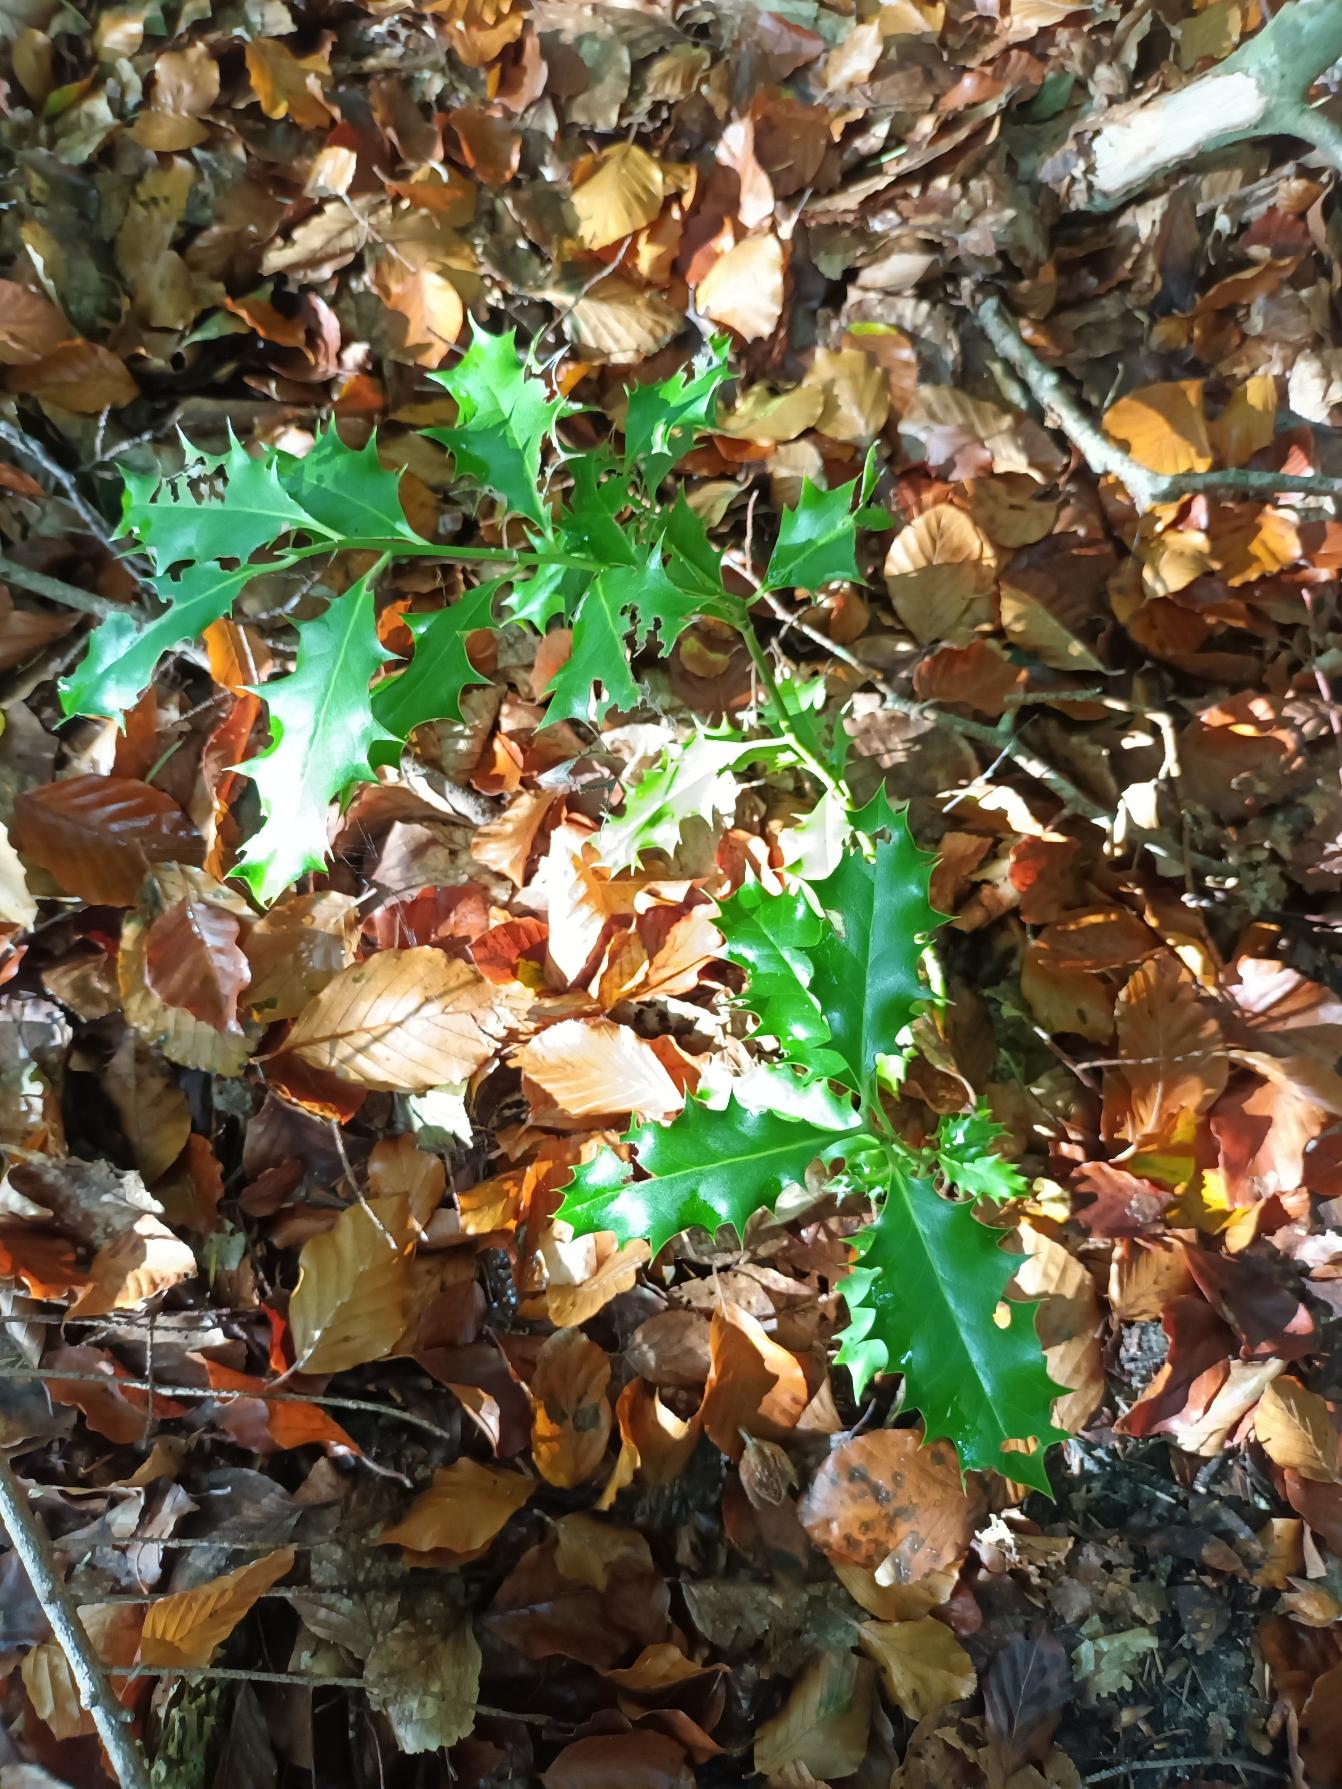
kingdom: Plantae
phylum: Tracheophyta
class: Magnoliopsida
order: Aquifoliales
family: Aquifoliaceae
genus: Ilex
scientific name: Ilex aquifolium
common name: Kristtorn
